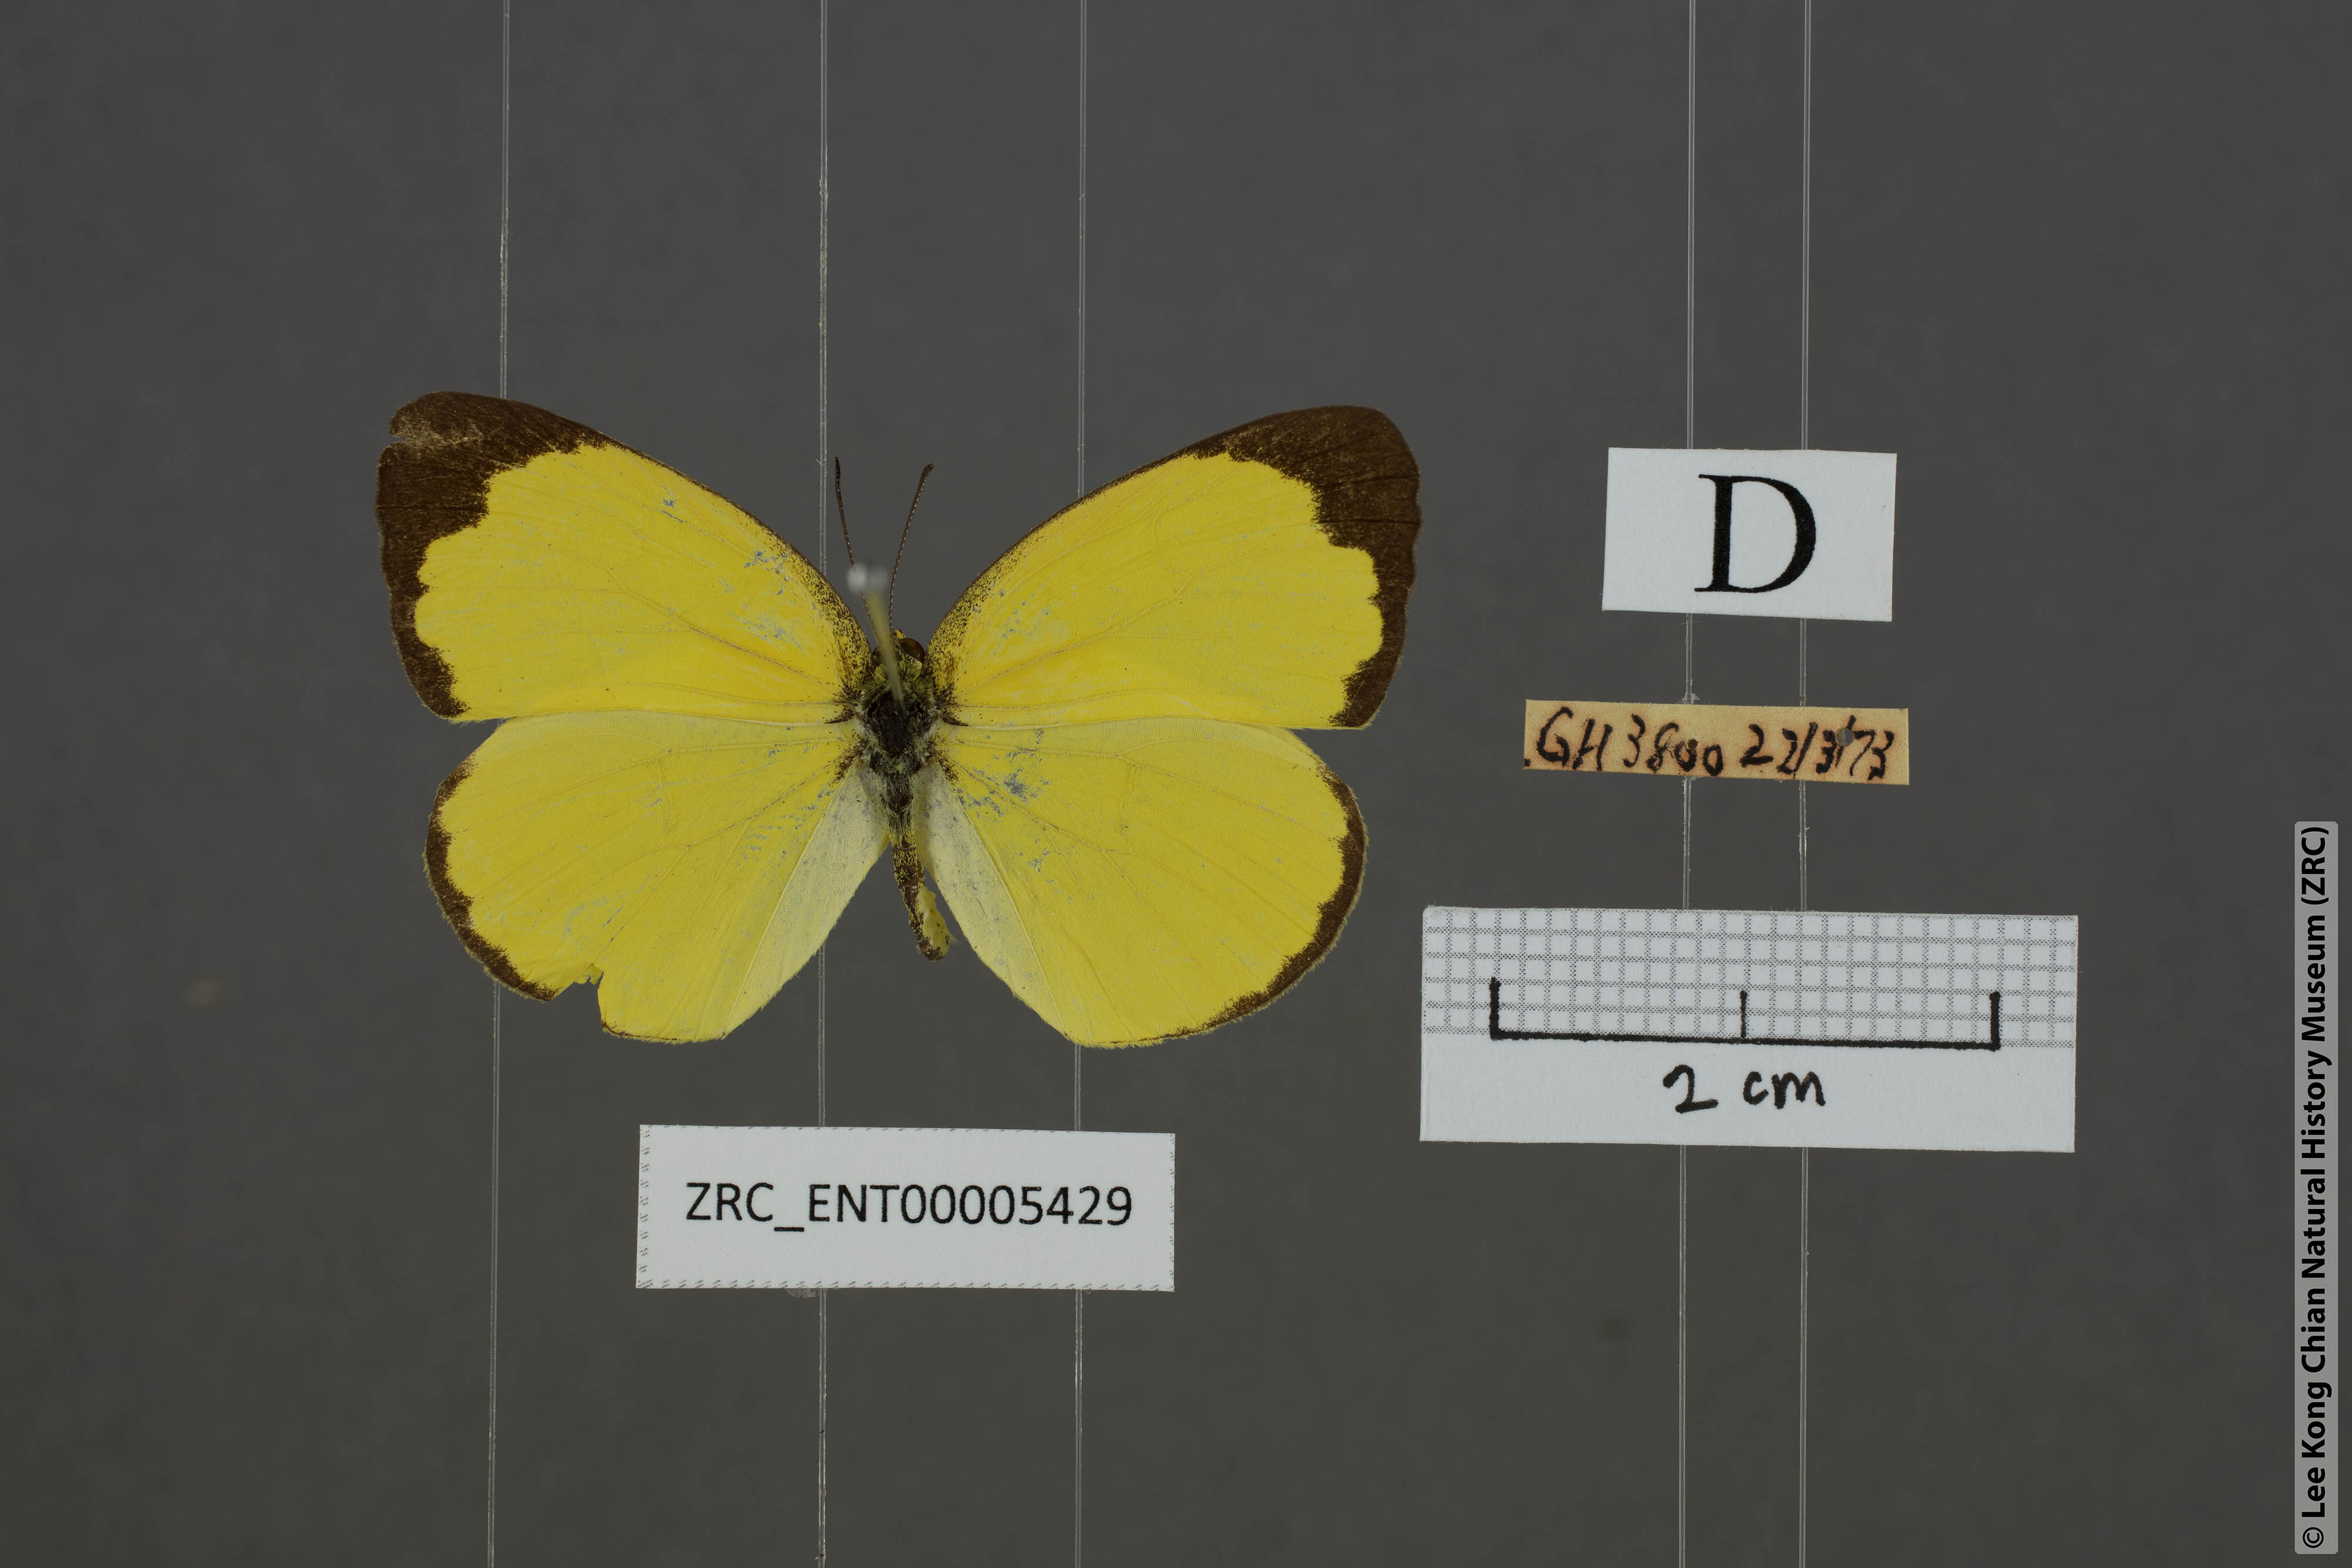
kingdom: Animalia
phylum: Arthropoda
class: Insecta
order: Lepidoptera
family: Pieridae
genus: Eurema
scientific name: Eurema blanda
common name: Three-spot grass yellow
